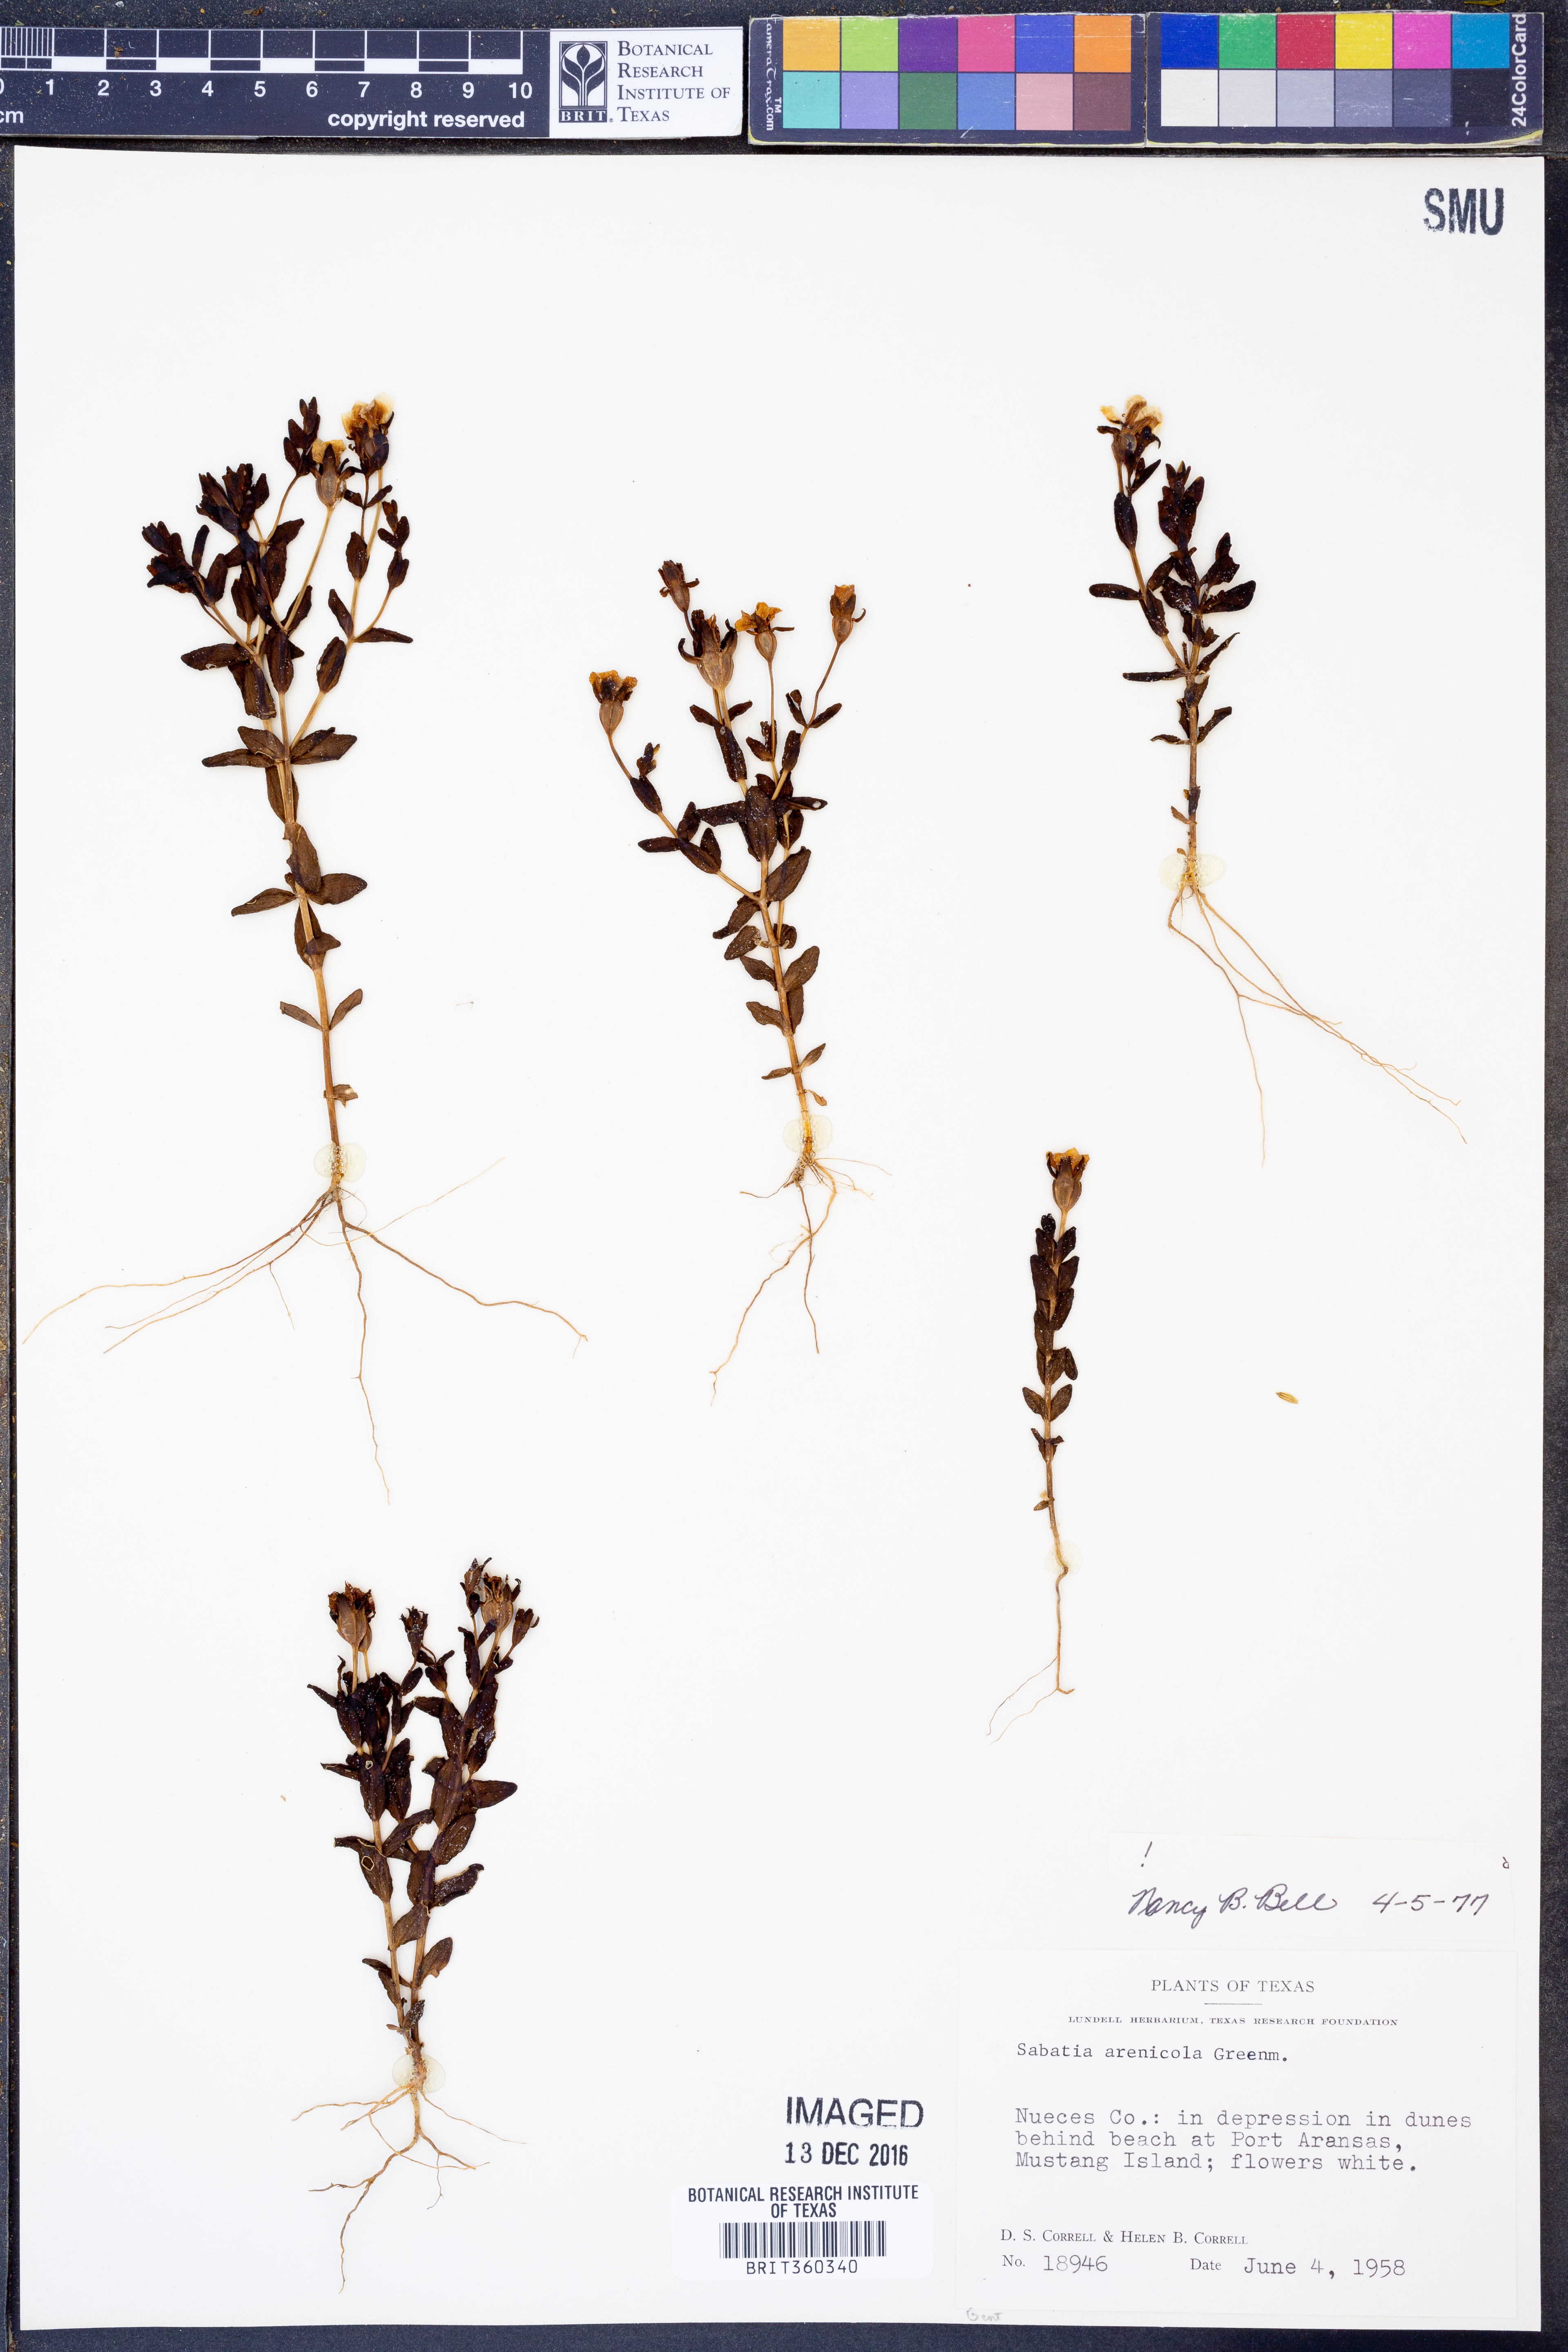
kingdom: Plantae
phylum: Tracheophyta
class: Magnoliopsida
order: Gentianales
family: Gentianaceae
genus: Sabatia
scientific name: Sabatia arenicola
